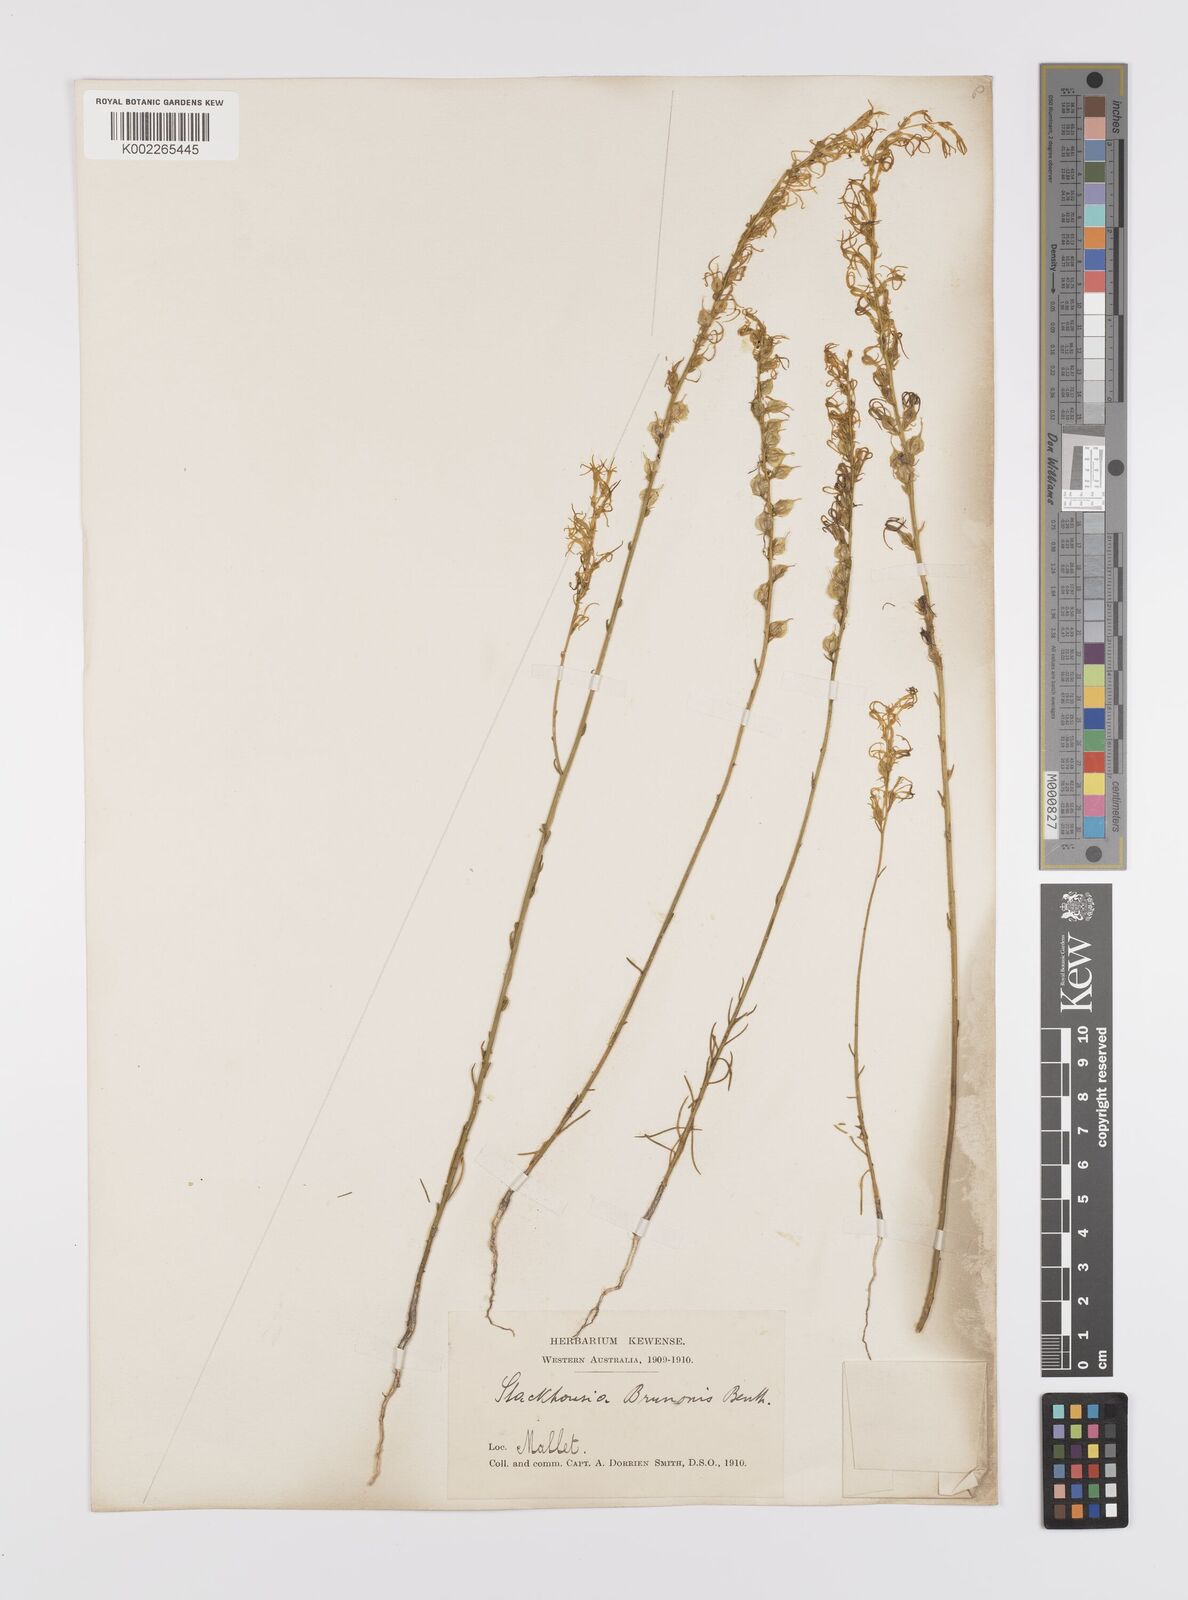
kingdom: Plantae
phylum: Tracheophyta
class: Magnoliopsida
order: Celastrales
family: Celastraceae
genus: Tripterococcus
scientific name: Tripterococcus brunonis
